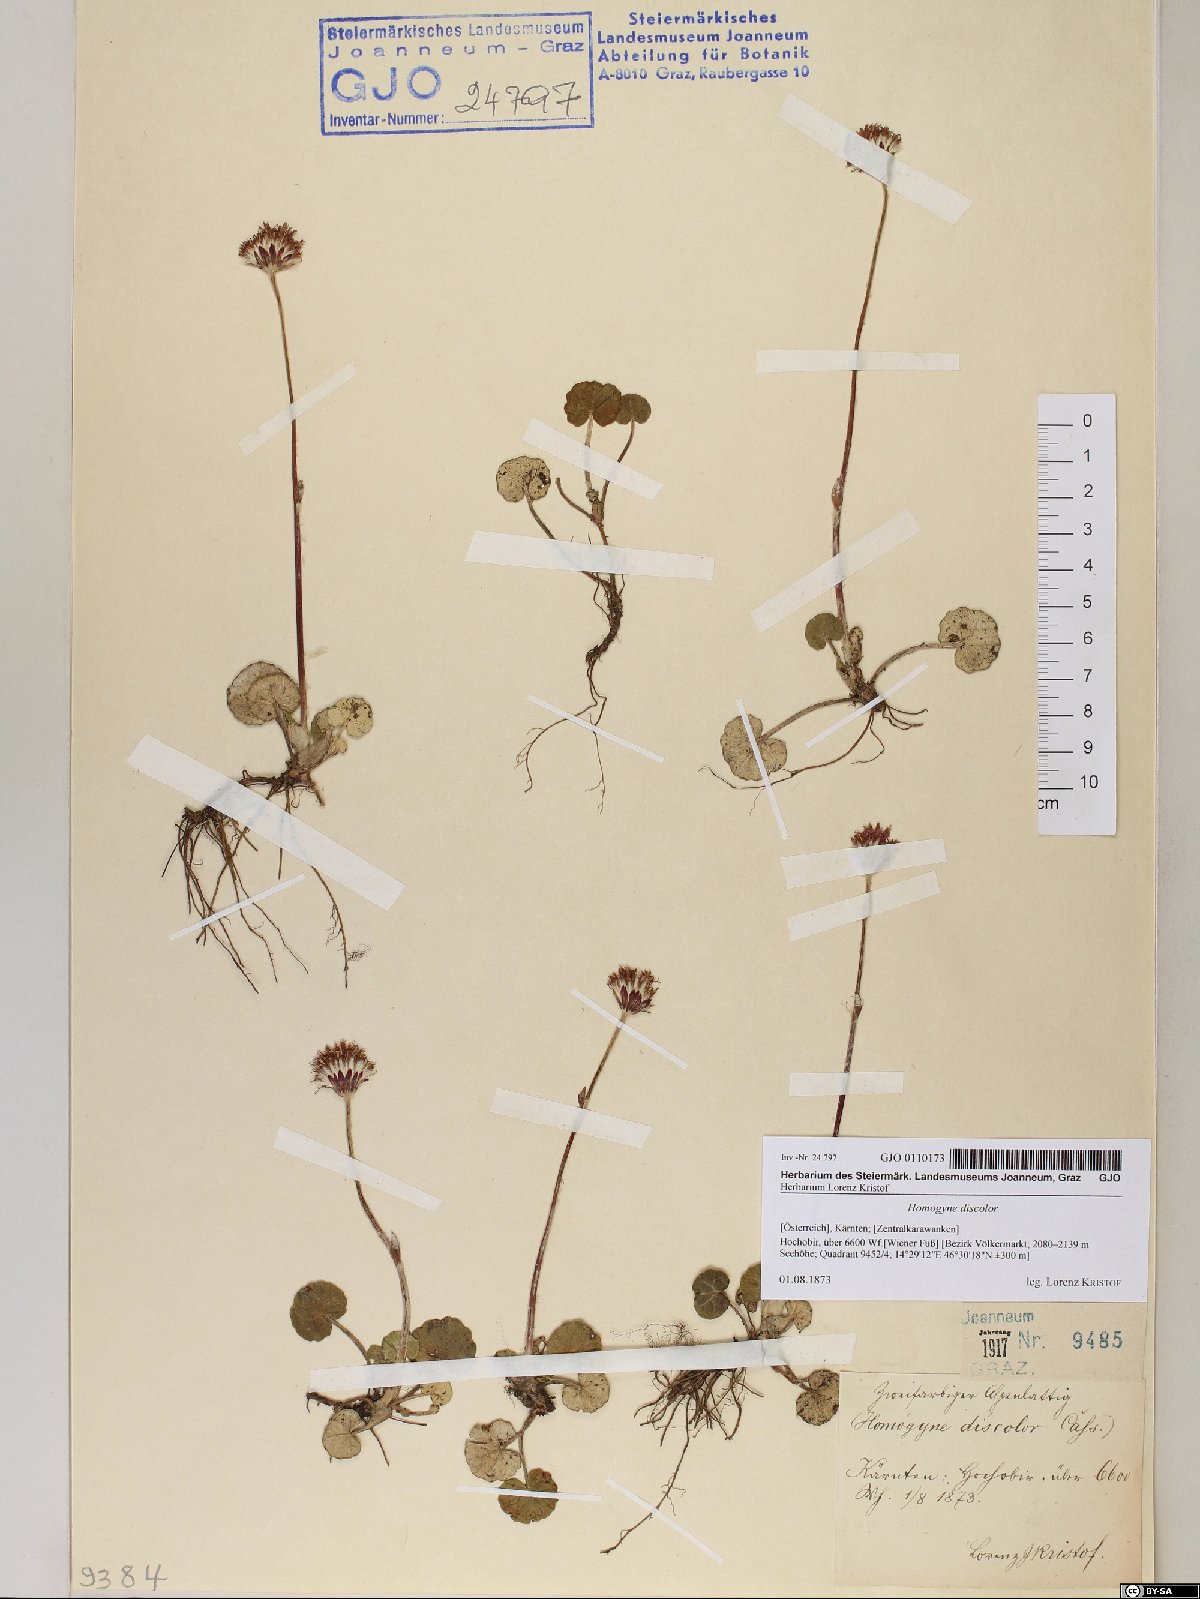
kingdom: Plantae
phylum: Tracheophyta
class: Magnoliopsida
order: Asterales
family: Asteraceae
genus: Homogyne
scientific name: Homogyne discolor
